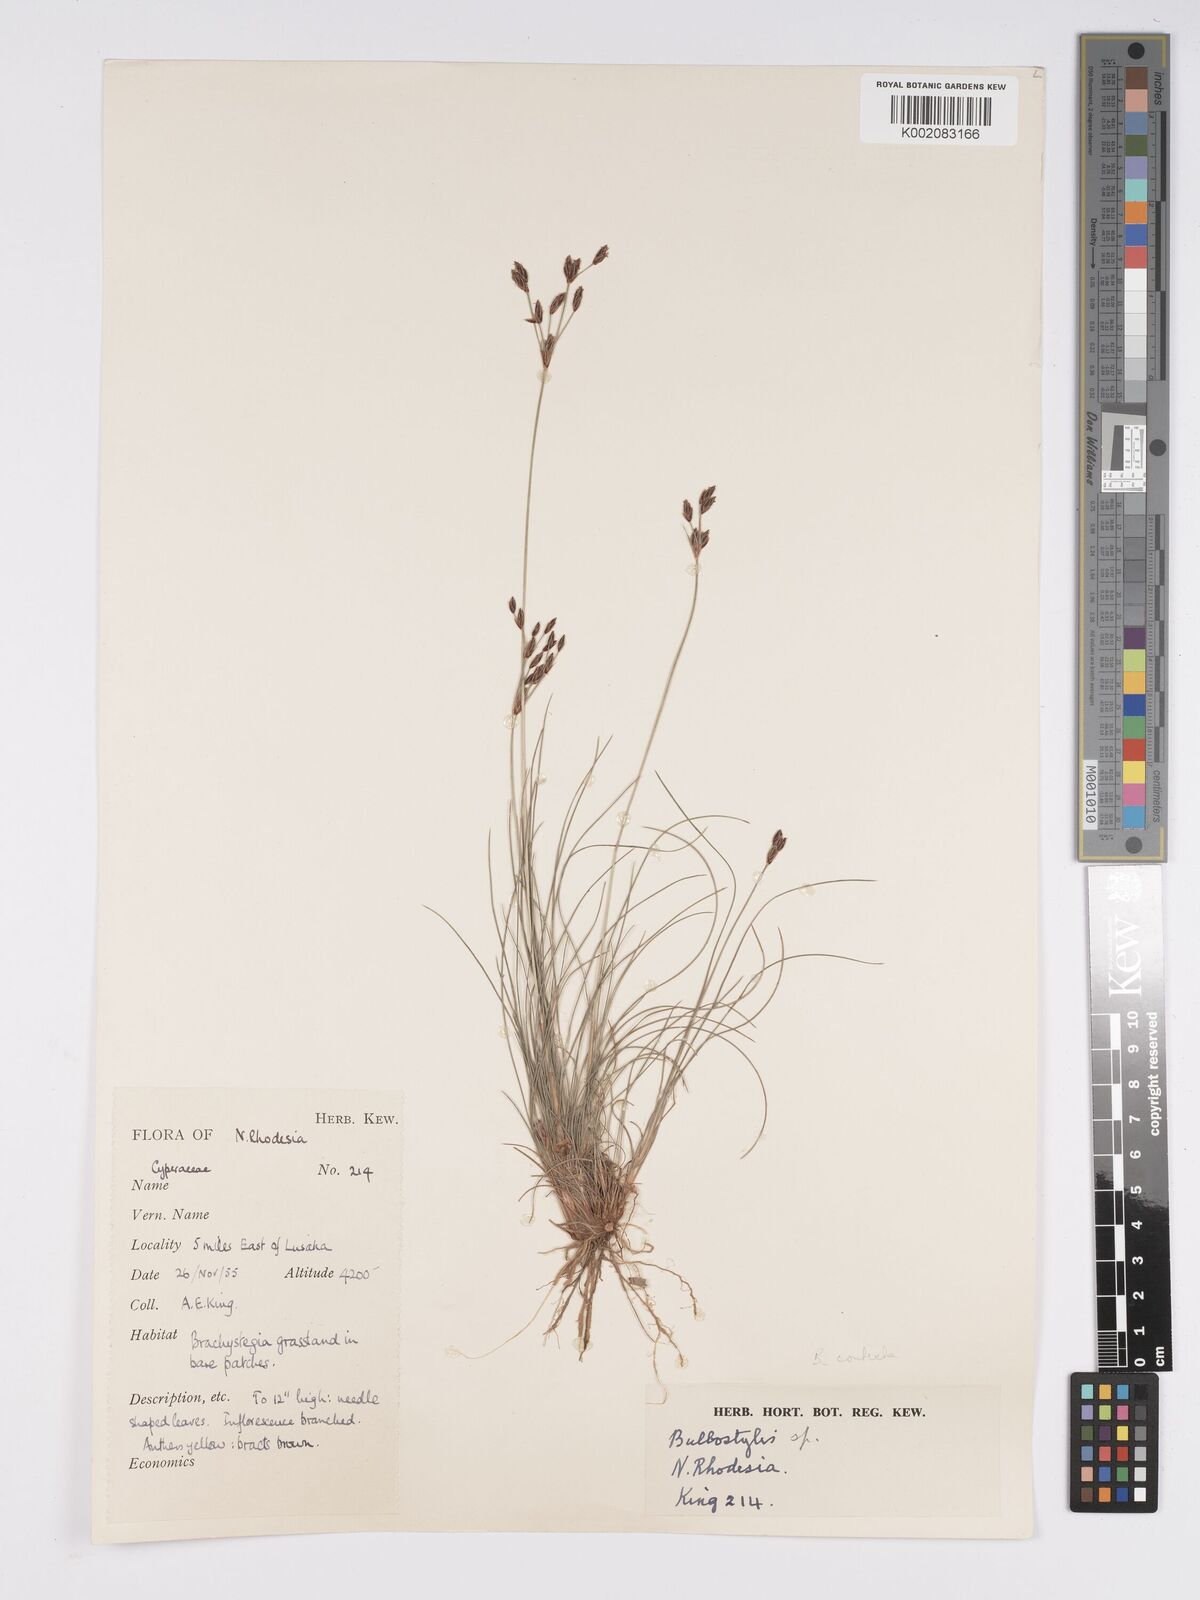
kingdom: Plantae
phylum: Tracheophyta
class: Liliopsida
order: Poales
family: Cyperaceae
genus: Bulbostylis
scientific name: Bulbostylis contexta
